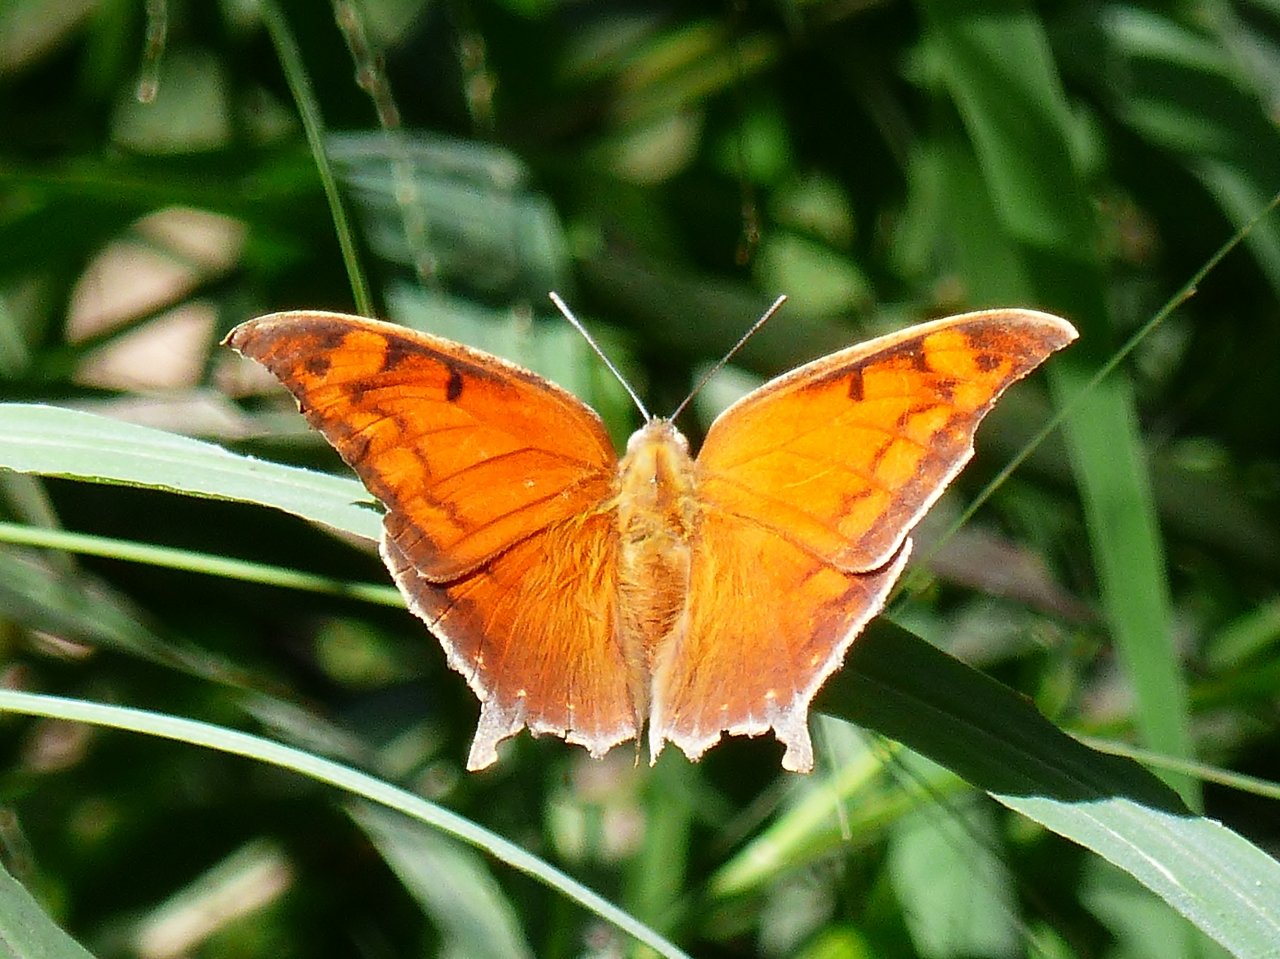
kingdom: Animalia
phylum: Arthropoda
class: Insecta
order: Lepidoptera
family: Nymphalidae
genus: Anaea
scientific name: Anaea aidea
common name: Tropical Leafwing
